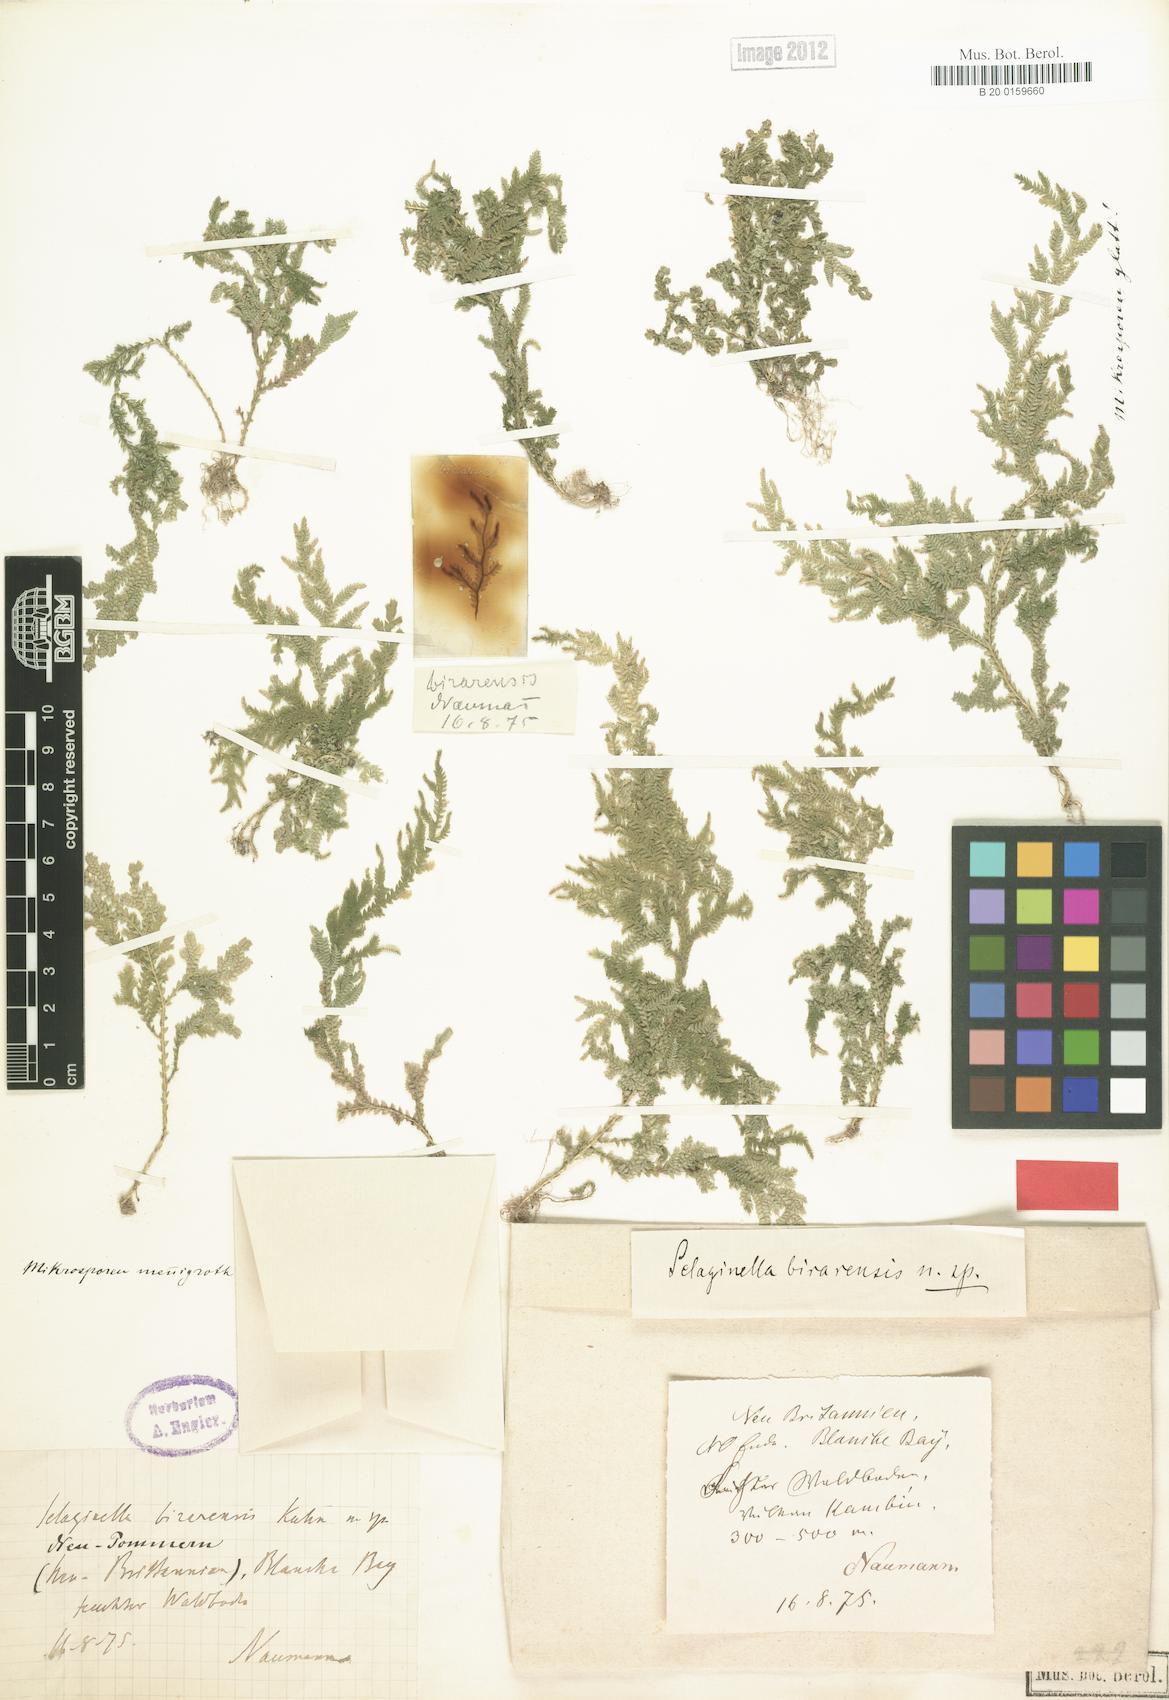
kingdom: Plantae
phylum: Tracheophyta
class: Lycopodiopsida
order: Selaginellales
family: Selaginellaceae
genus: Selaginella
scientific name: Selaginella birarensis
